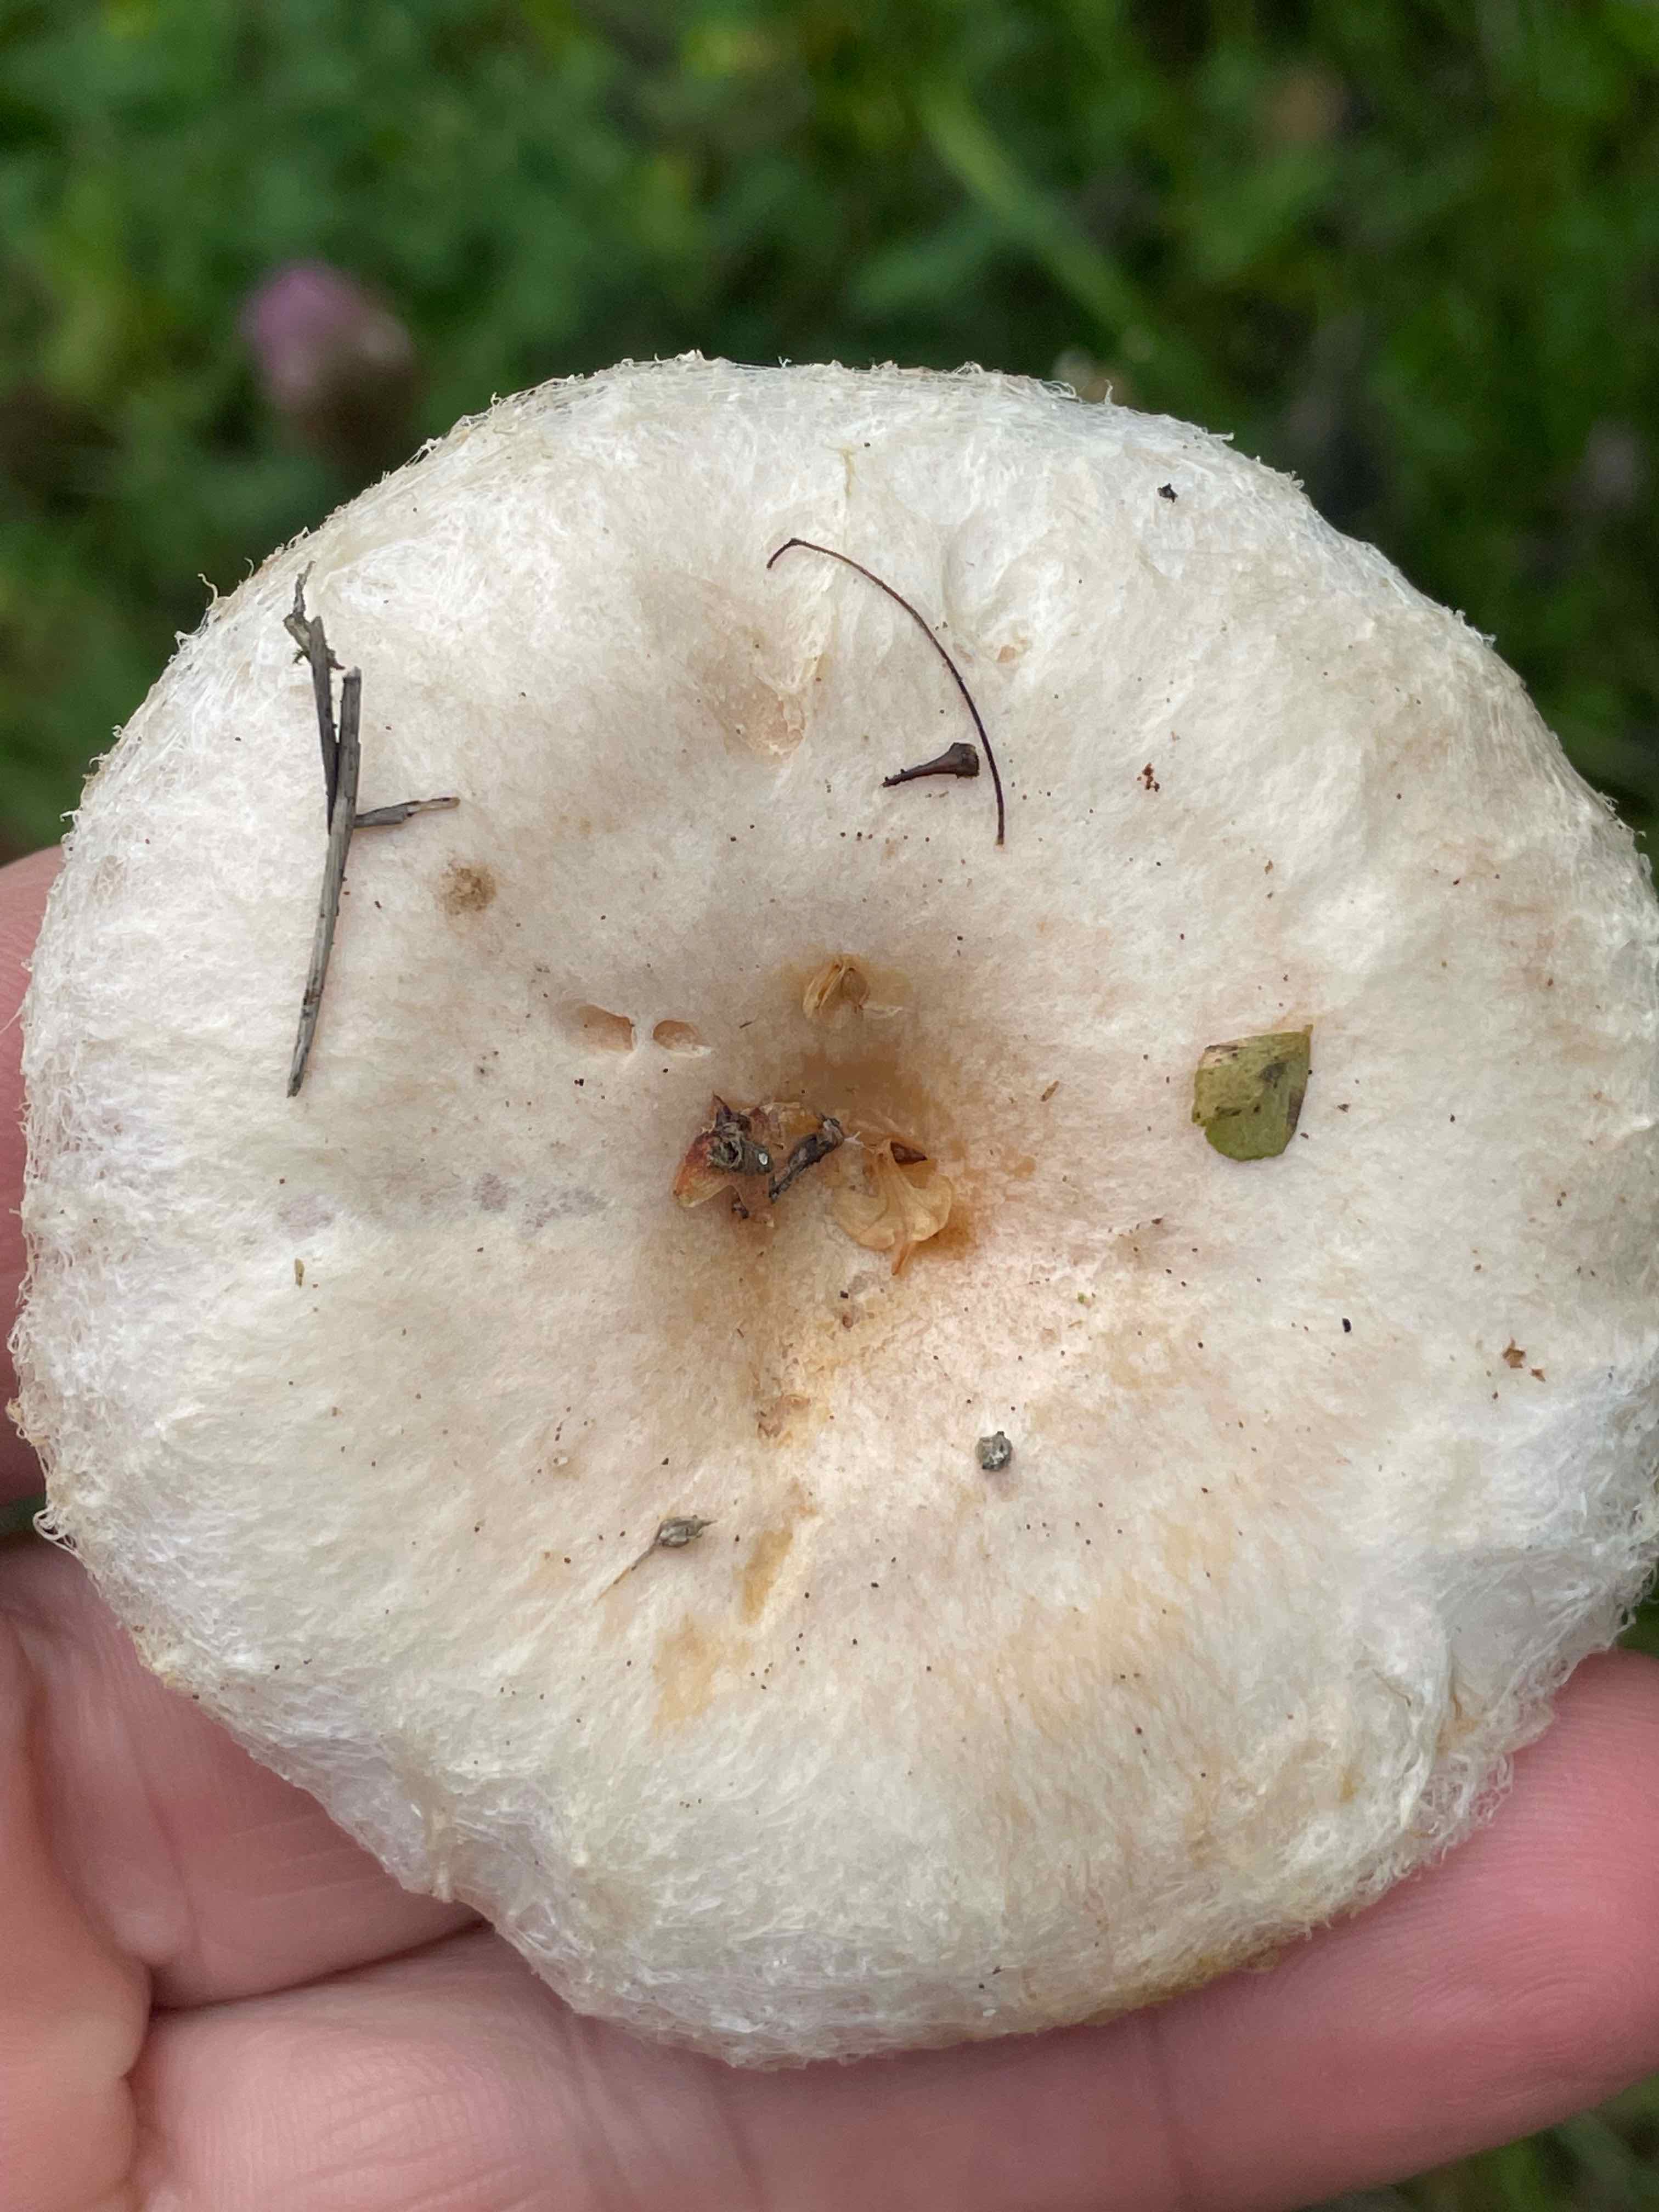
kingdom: Fungi
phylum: Basidiomycota
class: Agaricomycetes
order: Russulales
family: Russulaceae
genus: Lactarius
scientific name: Lactarius pubescens
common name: dunet mælkehat
